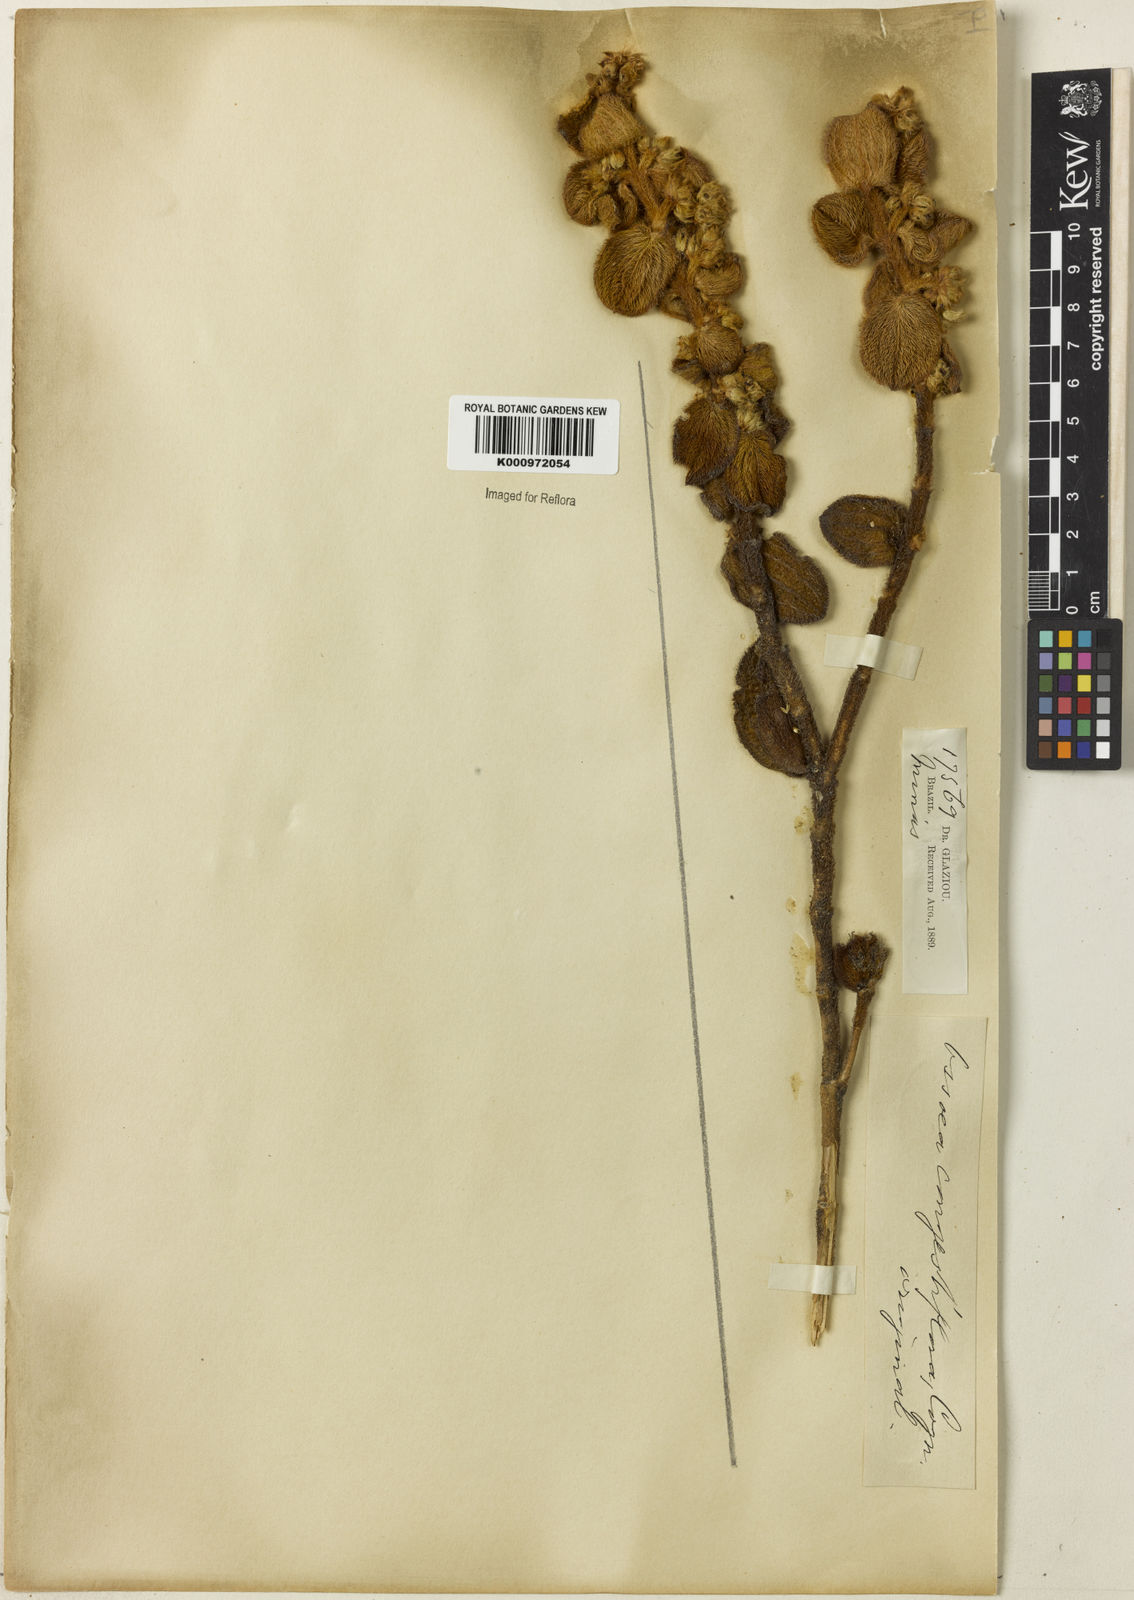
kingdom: Plantae
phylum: Tracheophyta
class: Magnoliopsida
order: Myrtales
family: Melastomataceae
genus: Miconia
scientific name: Miconia leacongestiflora
